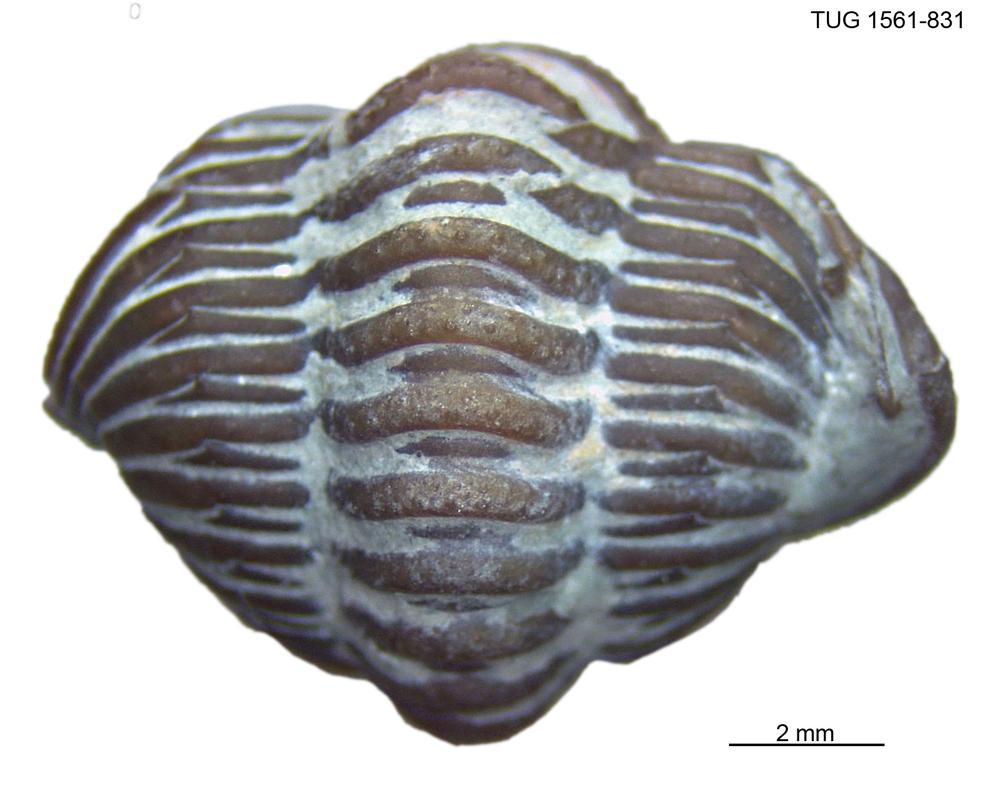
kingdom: Animalia
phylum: Arthropoda
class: Trilobita
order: Phacopida
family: Calymenidae
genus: Calymene
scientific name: Calymene
